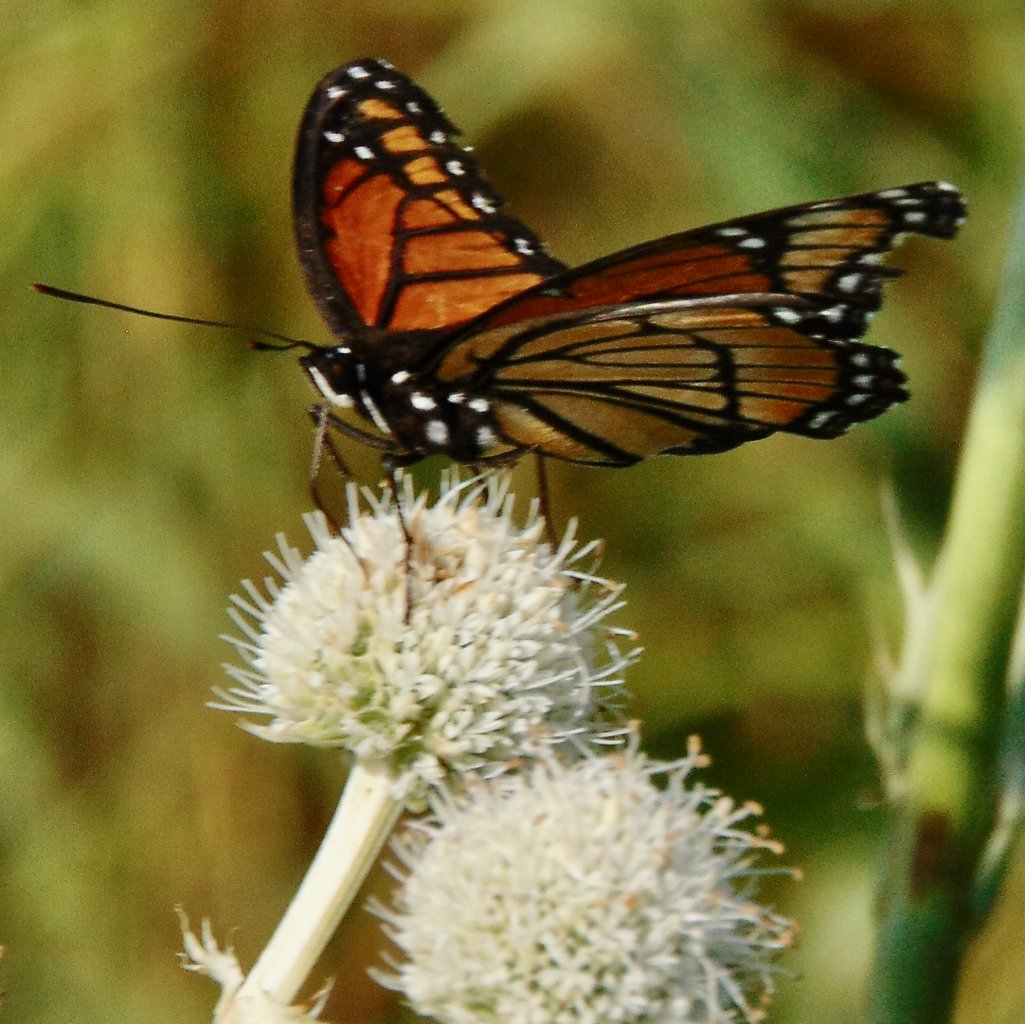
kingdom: Animalia
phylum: Arthropoda
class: Insecta
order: Lepidoptera
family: Nymphalidae
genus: Limenitis
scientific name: Limenitis archippus
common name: Viceroy
